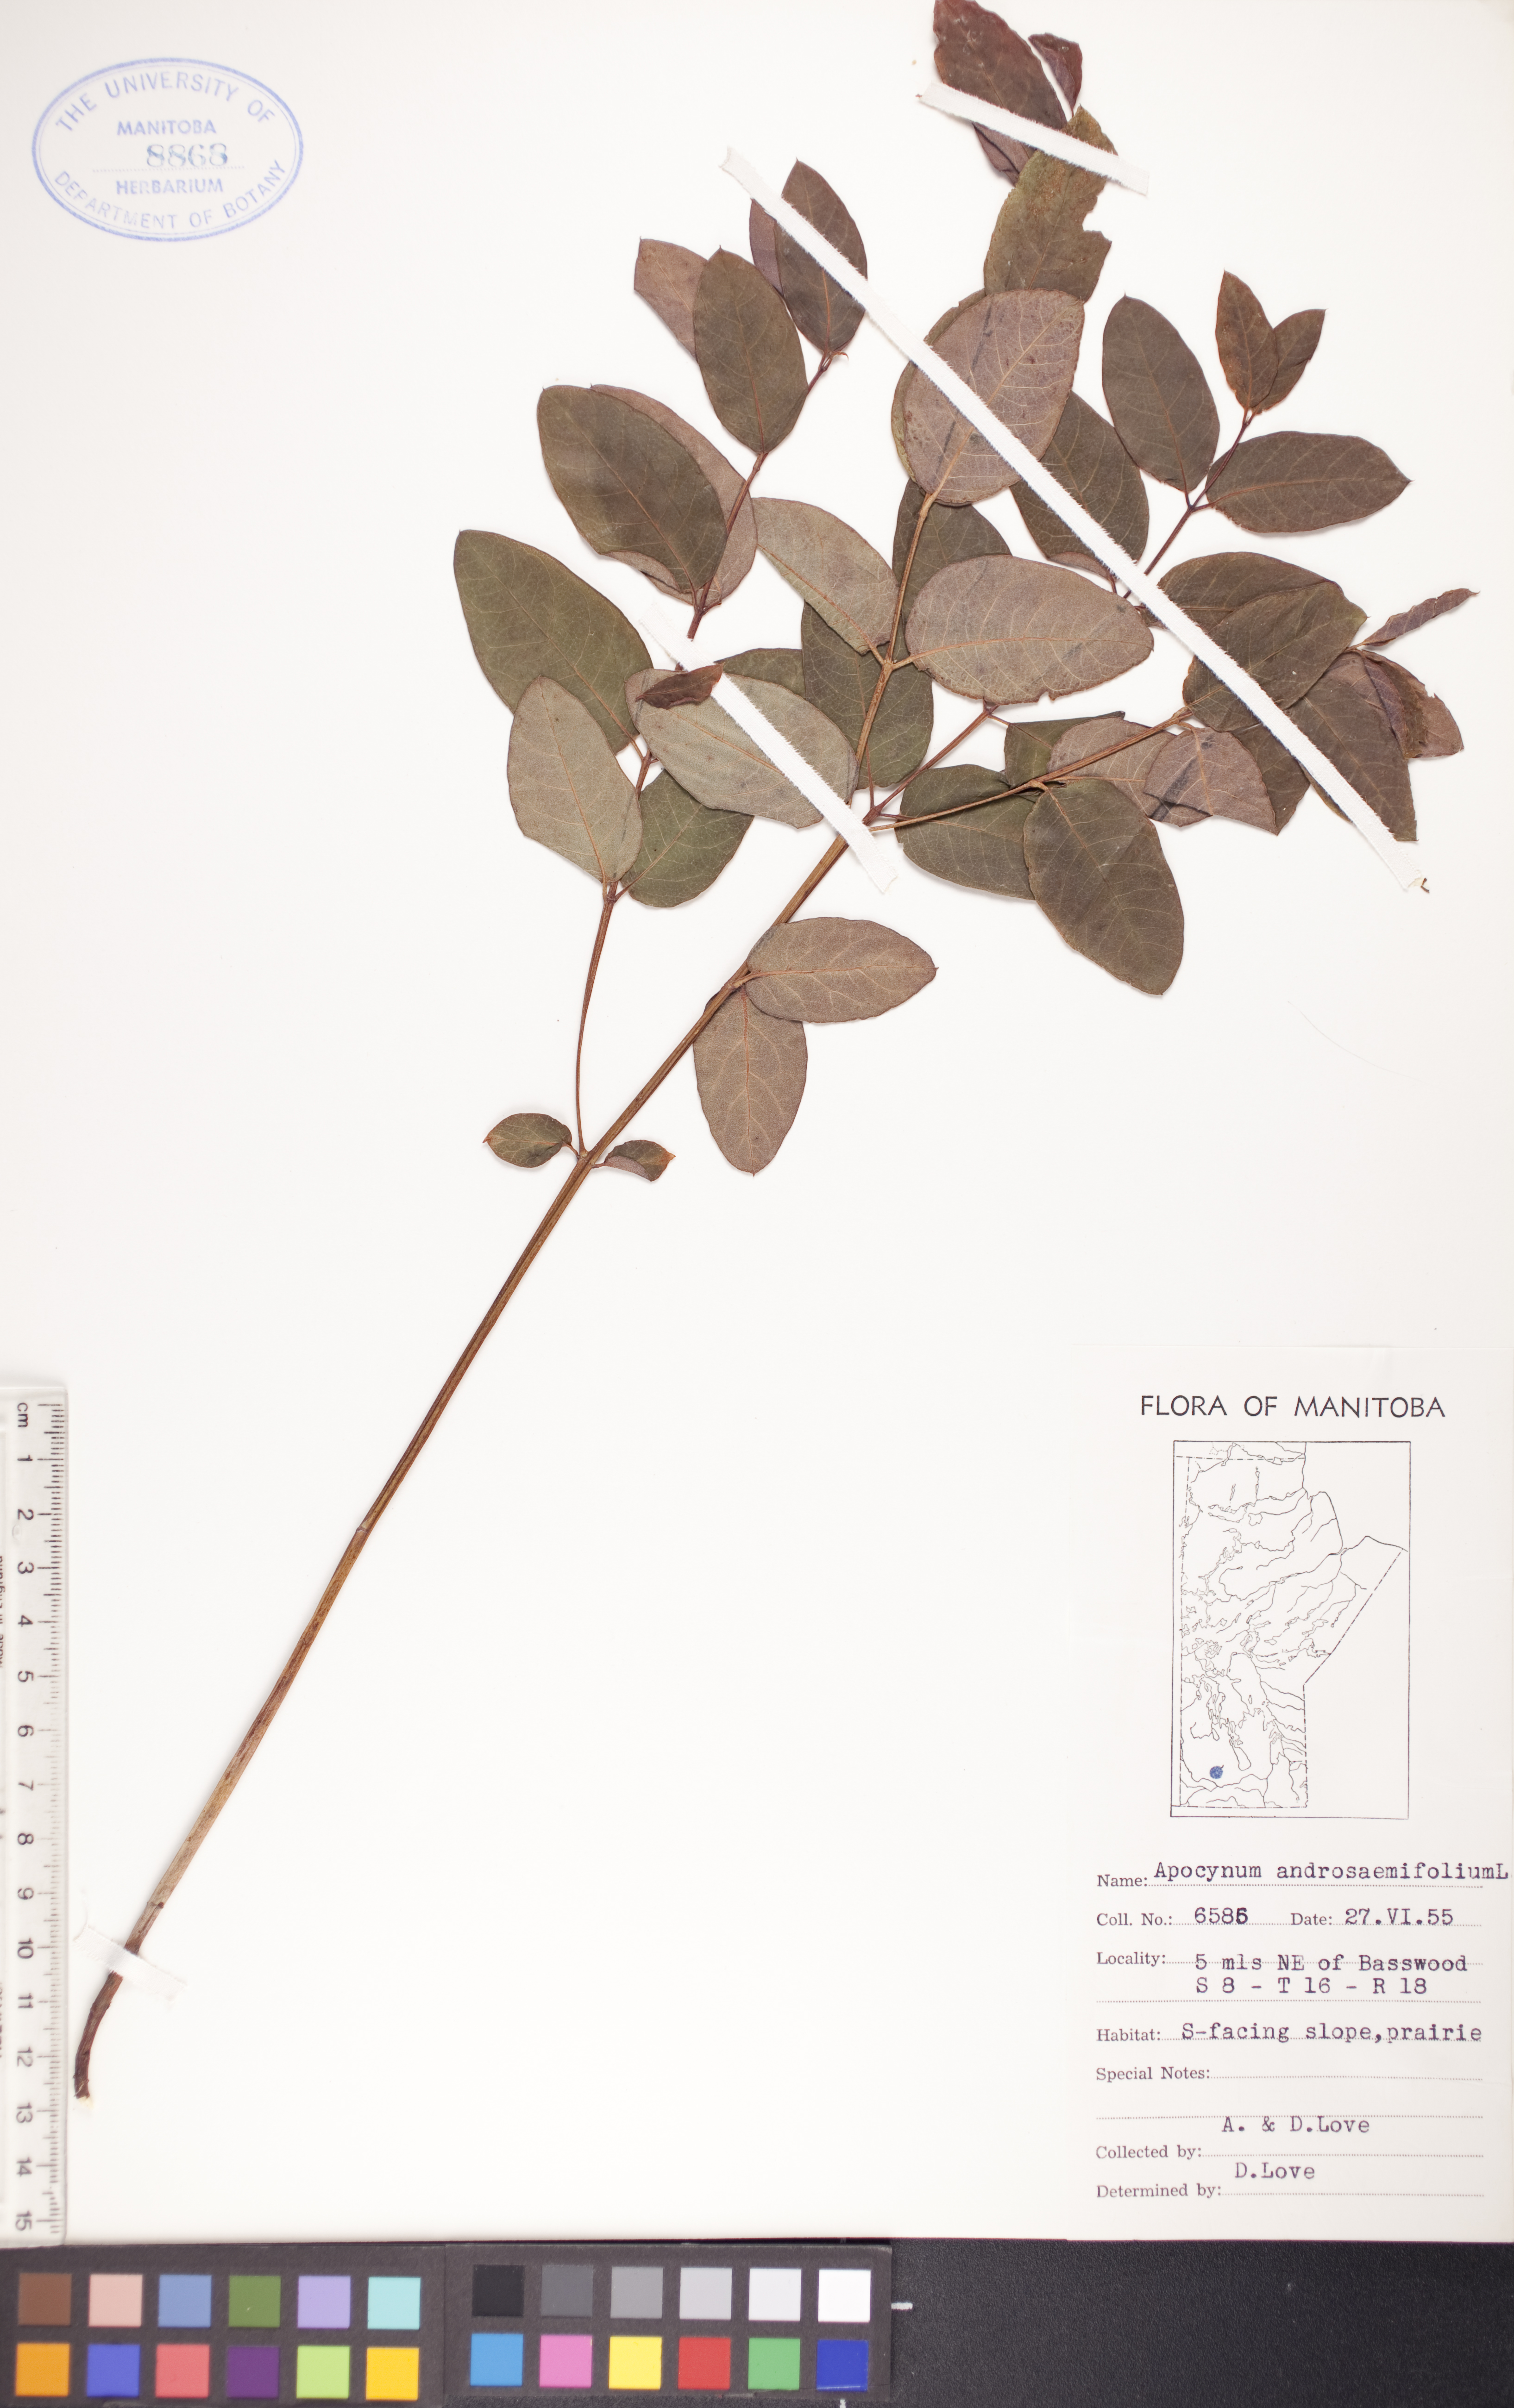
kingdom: Plantae
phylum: Tracheophyta
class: Magnoliopsida
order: Gentianales
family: Apocynaceae
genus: Apocynum
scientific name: Apocynum androsaemifolium
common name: Spreading dogbane
